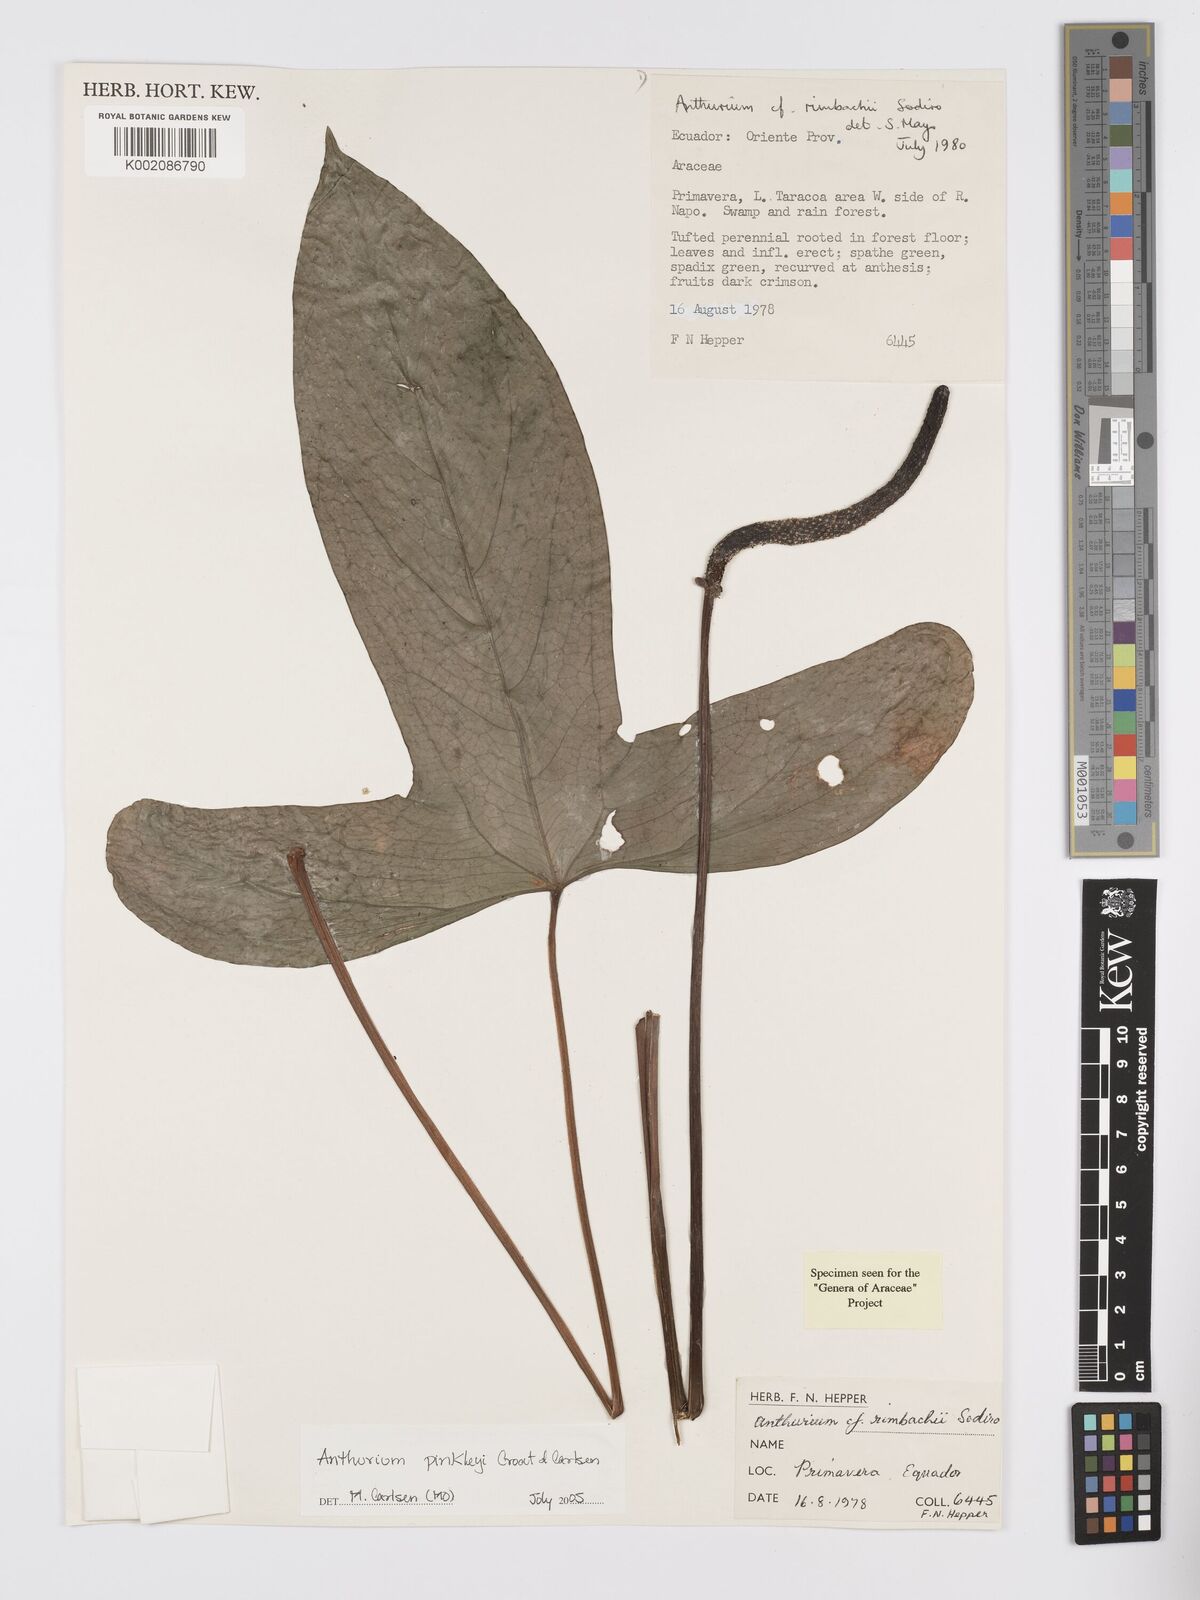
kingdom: Plantae
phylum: Tracheophyta
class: Liliopsida
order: Alismatales
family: Araceae
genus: Anthurium
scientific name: Anthurium pinkleyi
